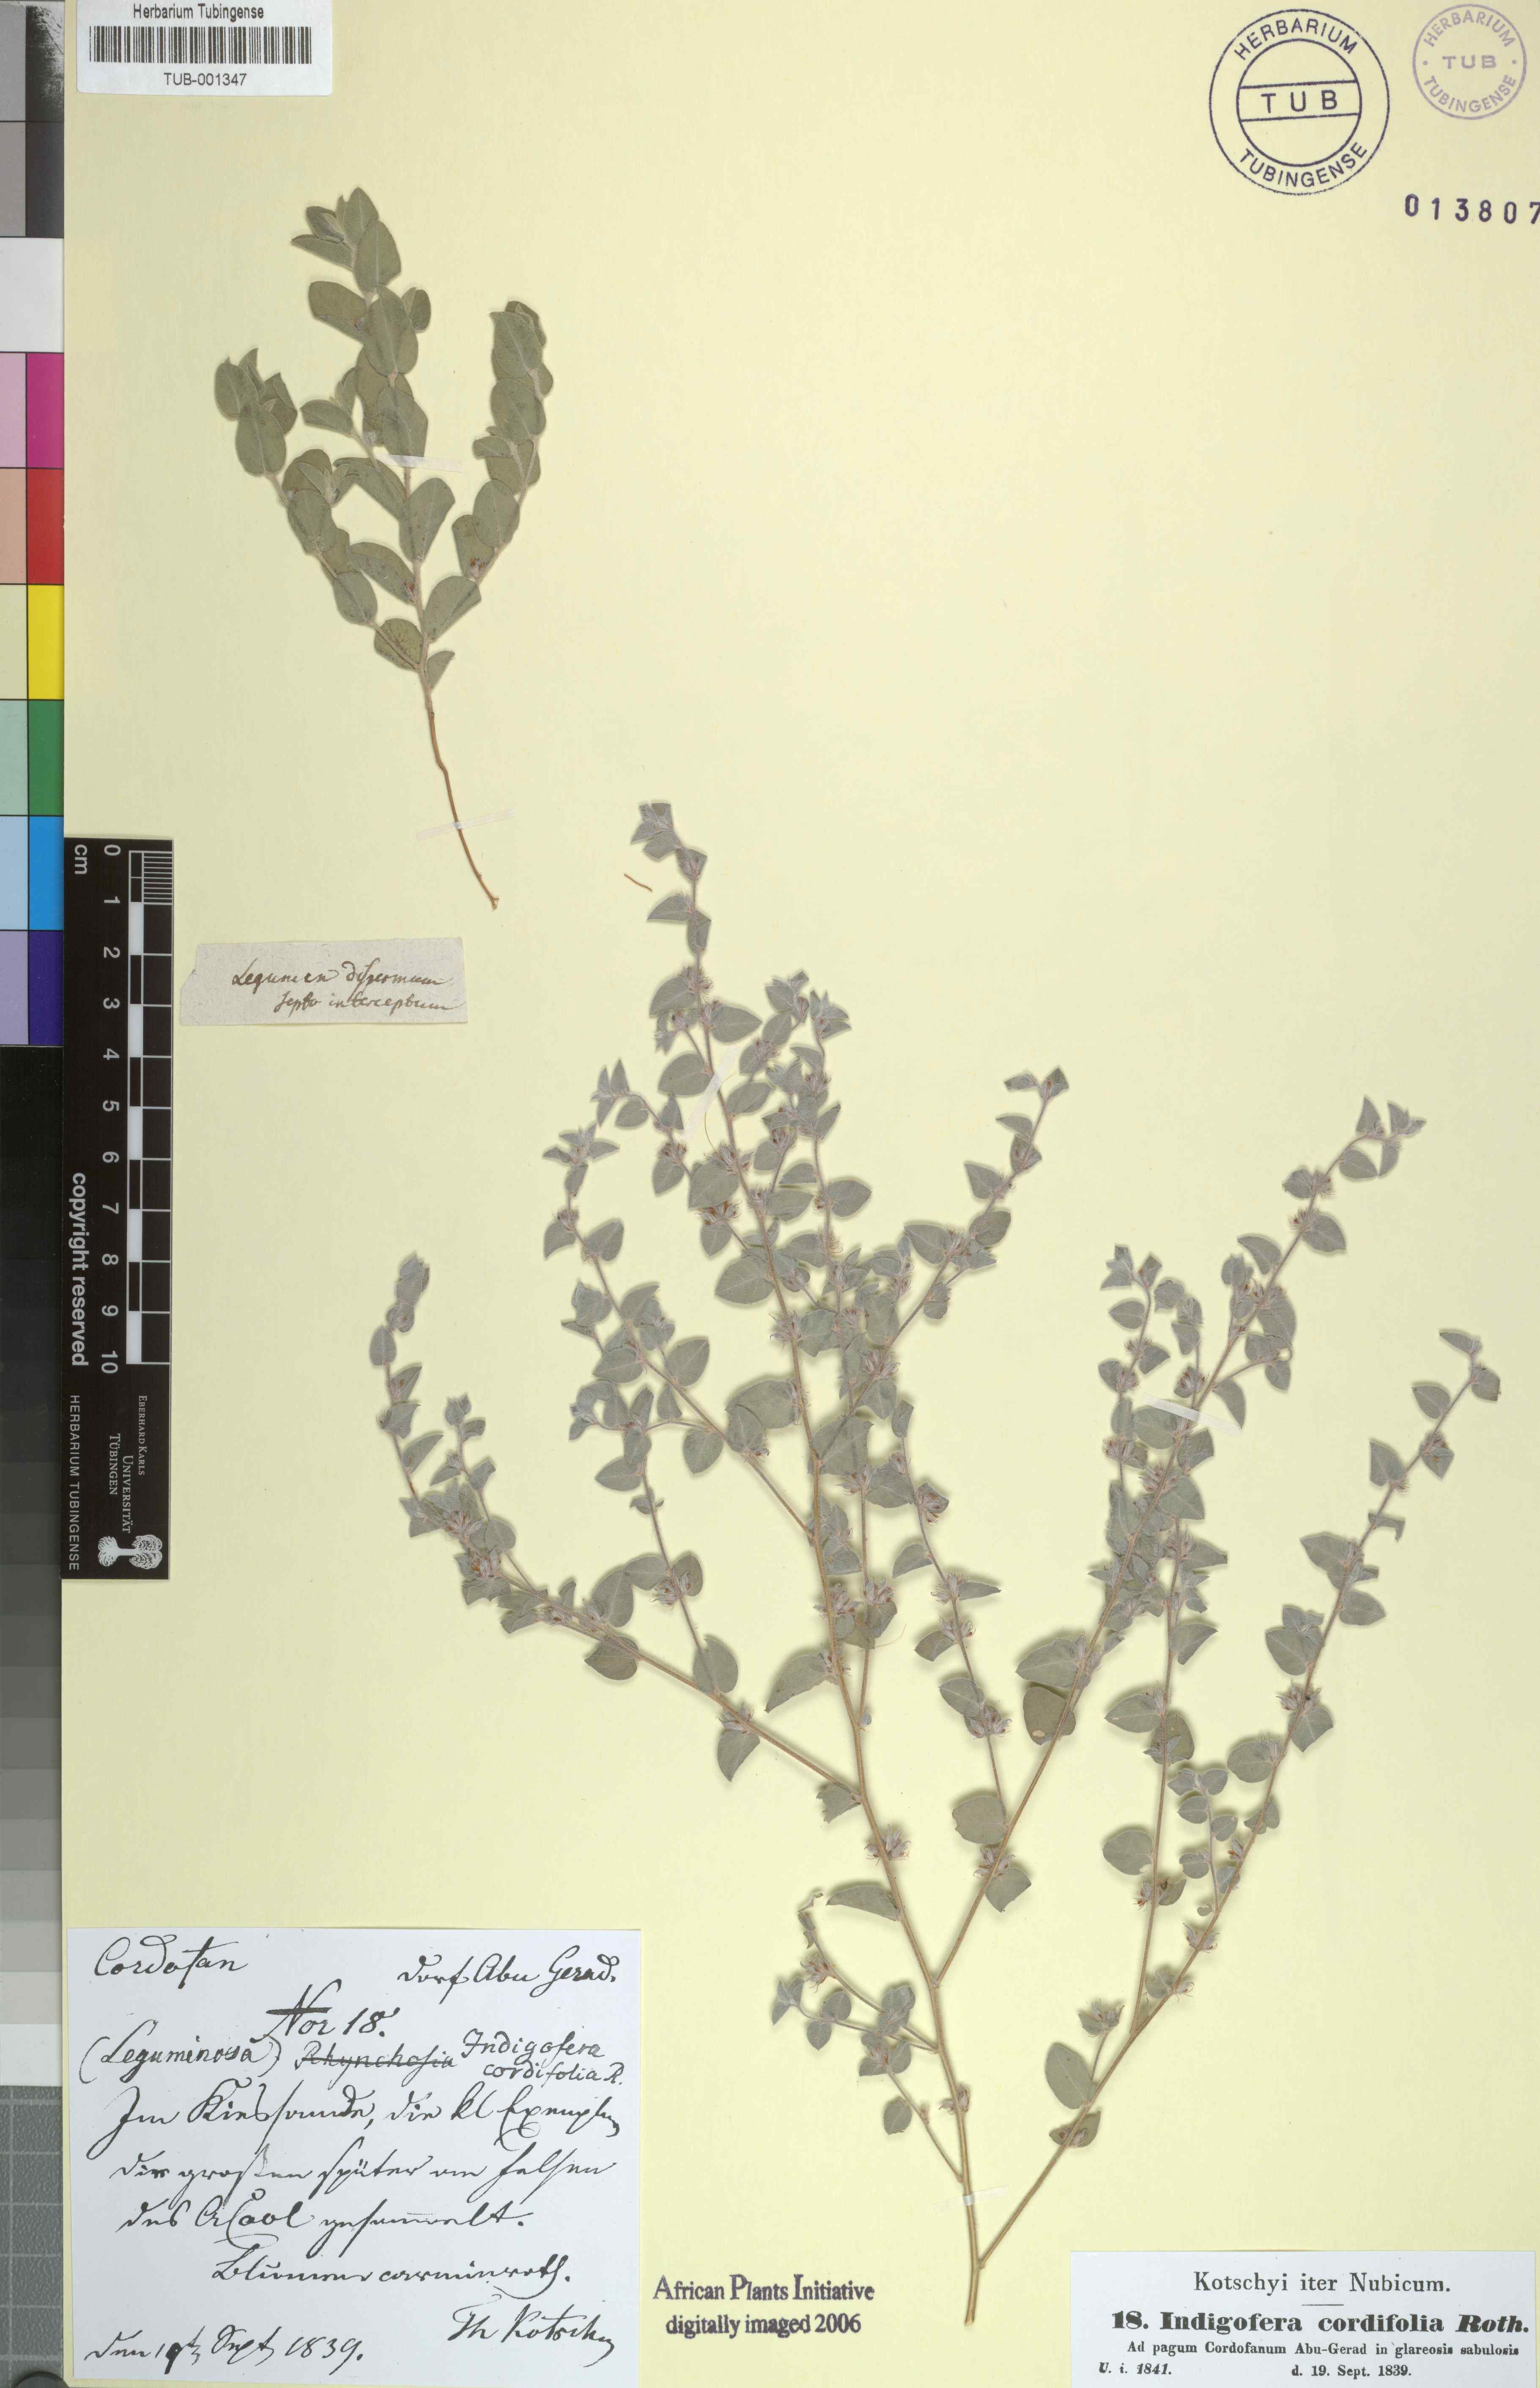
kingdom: Plantae
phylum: Tracheophyta
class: Magnoliopsida
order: Fabales
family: Fabaceae
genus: Indigofera
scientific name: Indigofera cordifolia
